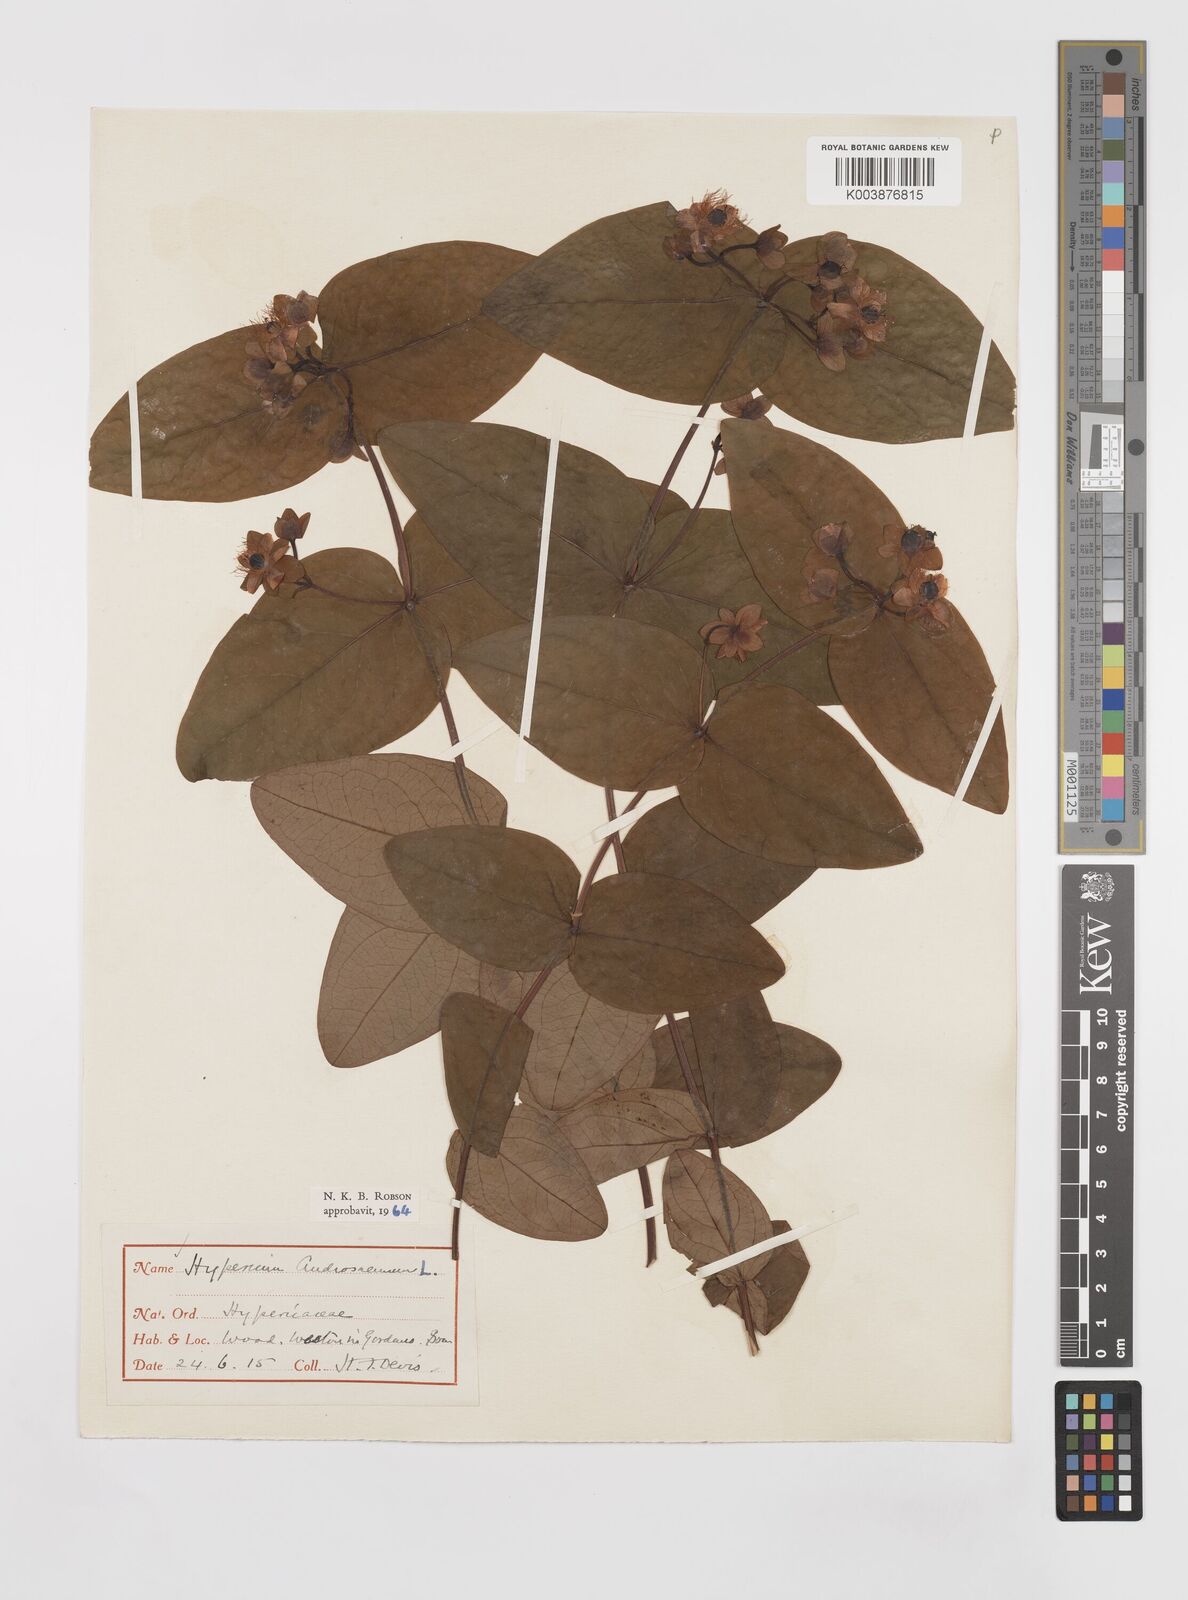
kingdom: Plantae
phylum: Tracheophyta
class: Magnoliopsida
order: Malpighiales
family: Hypericaceae
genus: Hypericum
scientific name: Hypericum androsaemum
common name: Sweet-amber
